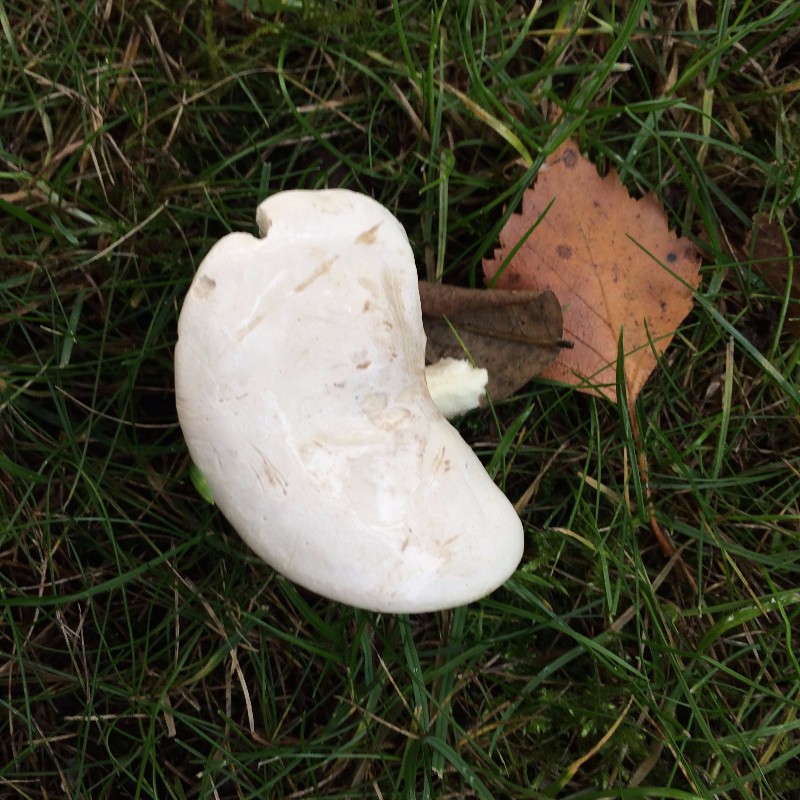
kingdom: Fungi
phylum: Basidiomycota
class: Agaricomycetes
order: Agaricales
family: Entolomataceae
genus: Clitopilus
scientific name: Clitopilus prunulus
